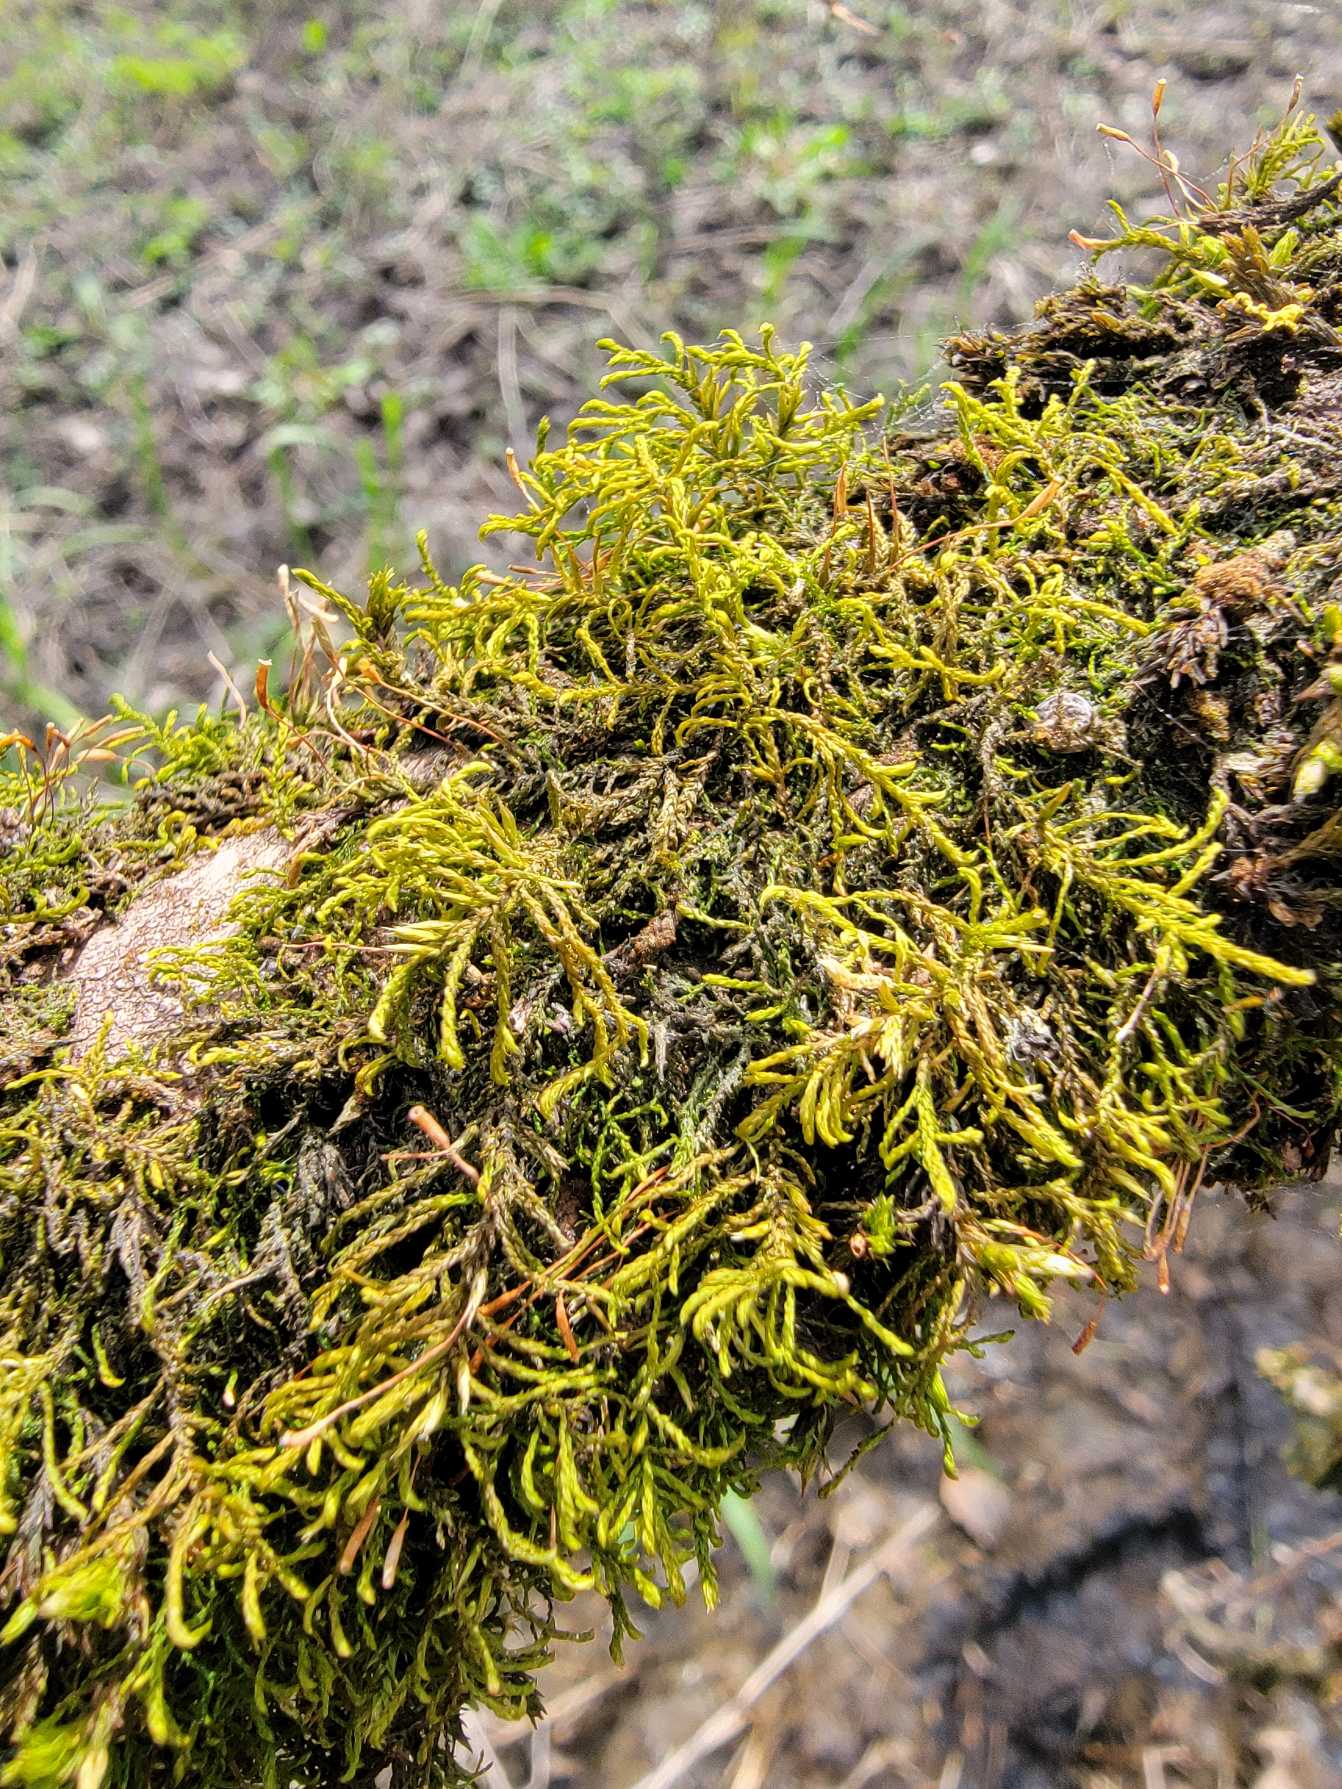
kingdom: Plantae
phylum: Bryophyta
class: Bryopsida
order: Hypnales
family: Leskeaceae
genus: Leskea
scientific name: Leskea polycarpa
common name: Mat lærkemos
